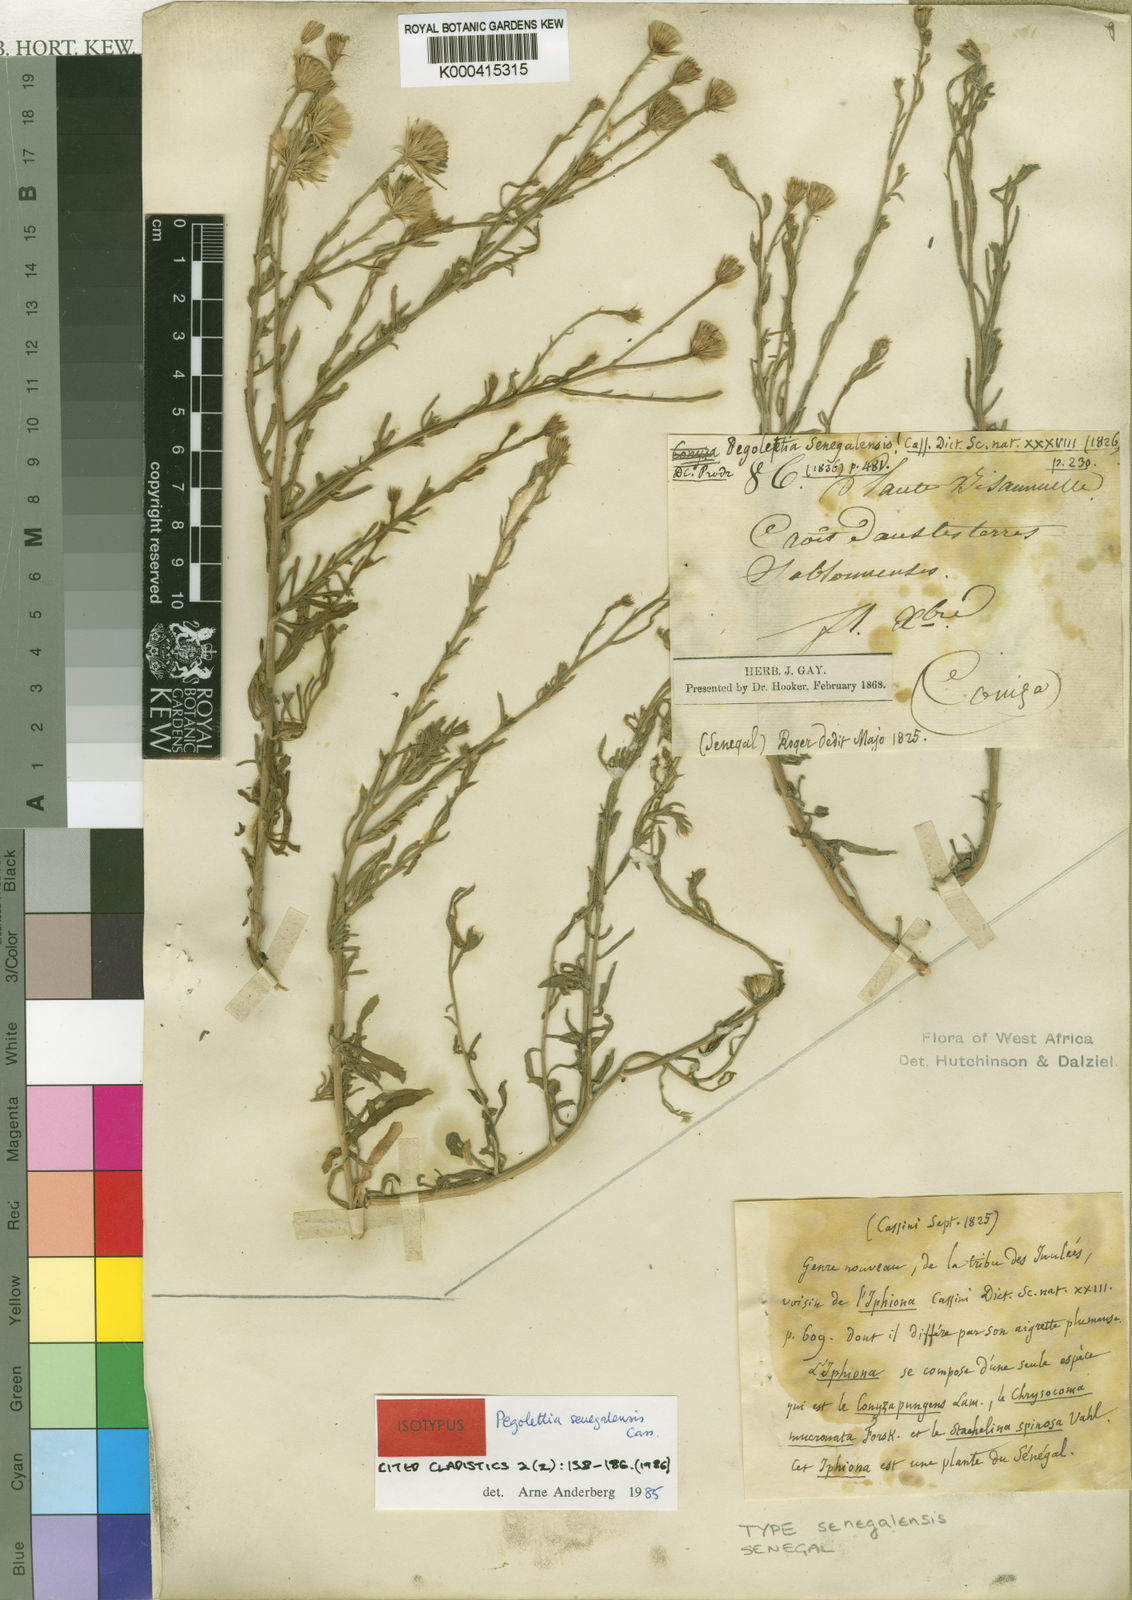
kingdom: Plantae
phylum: Tracheophyta
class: Magnoliopsida
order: Asterales
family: Asteraceae
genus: Pegolettia
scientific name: Pegolettia senegalensis
